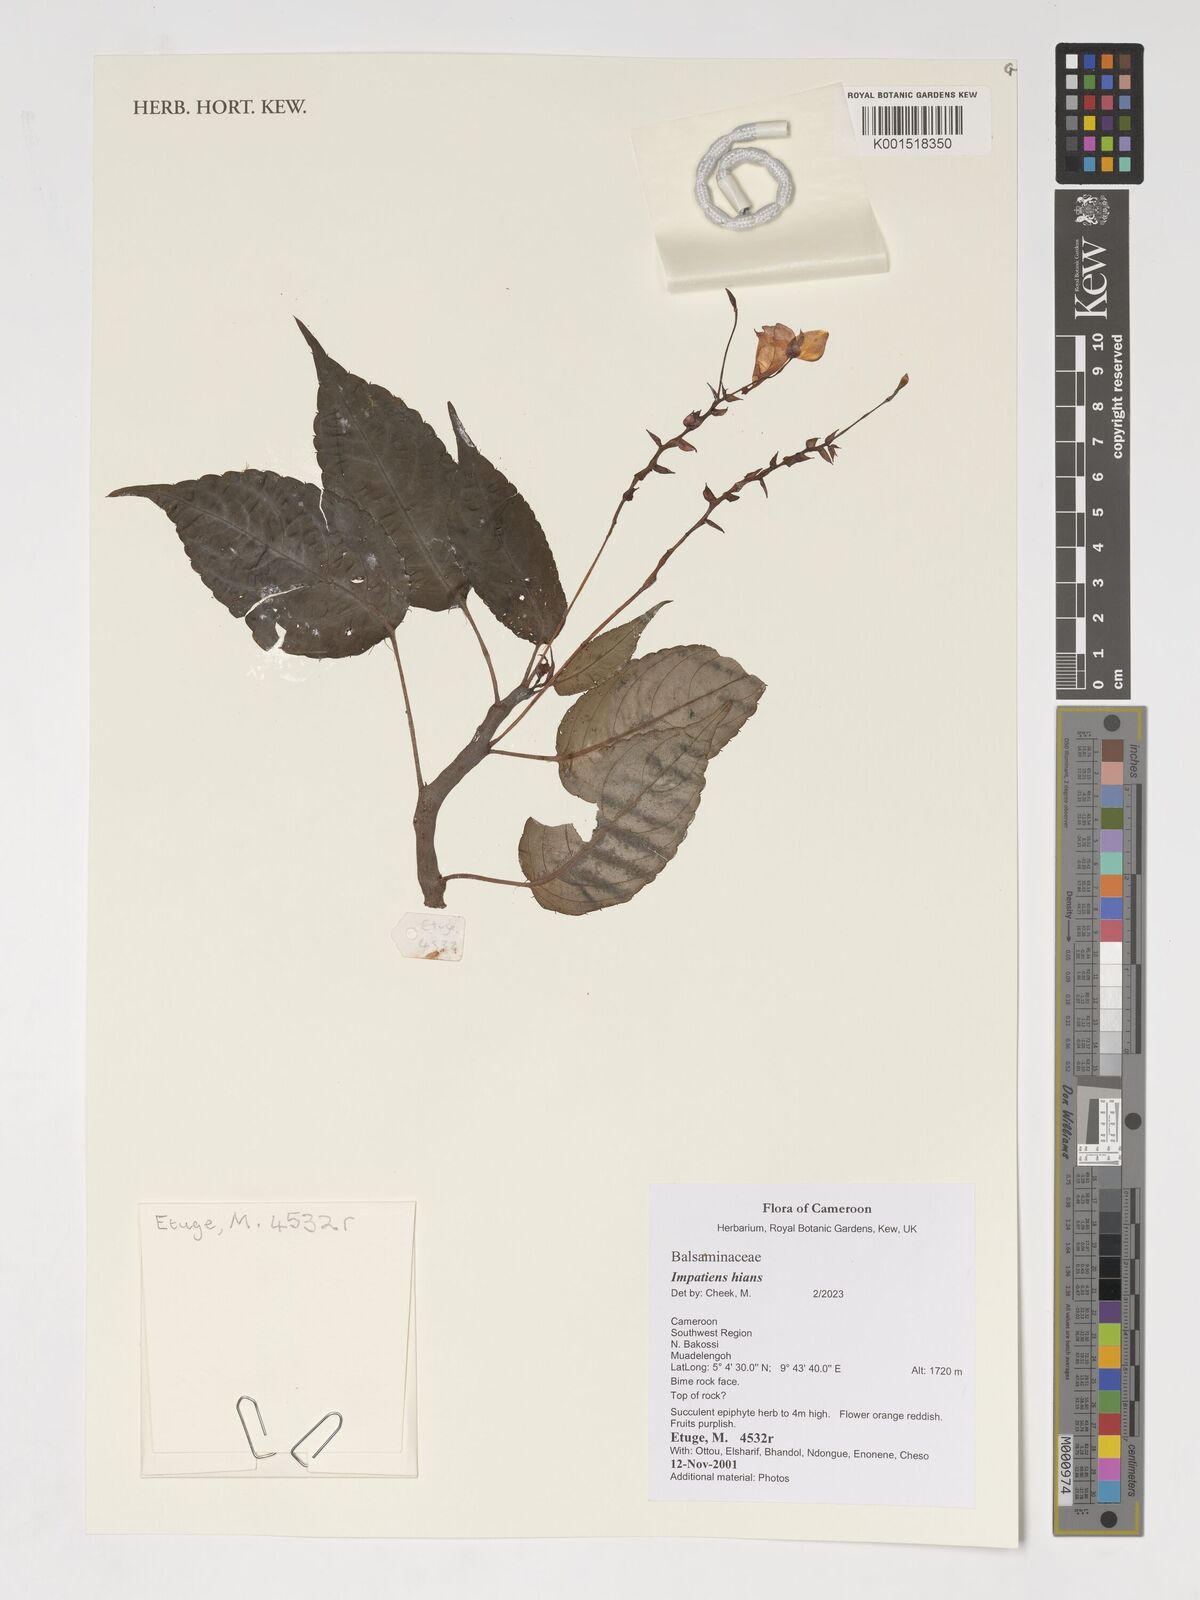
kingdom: Plantae
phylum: Tracheophyta
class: Magnoliopsida
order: Ericales
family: Balsaminaceae
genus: Impatiens
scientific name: Impatiens hians
